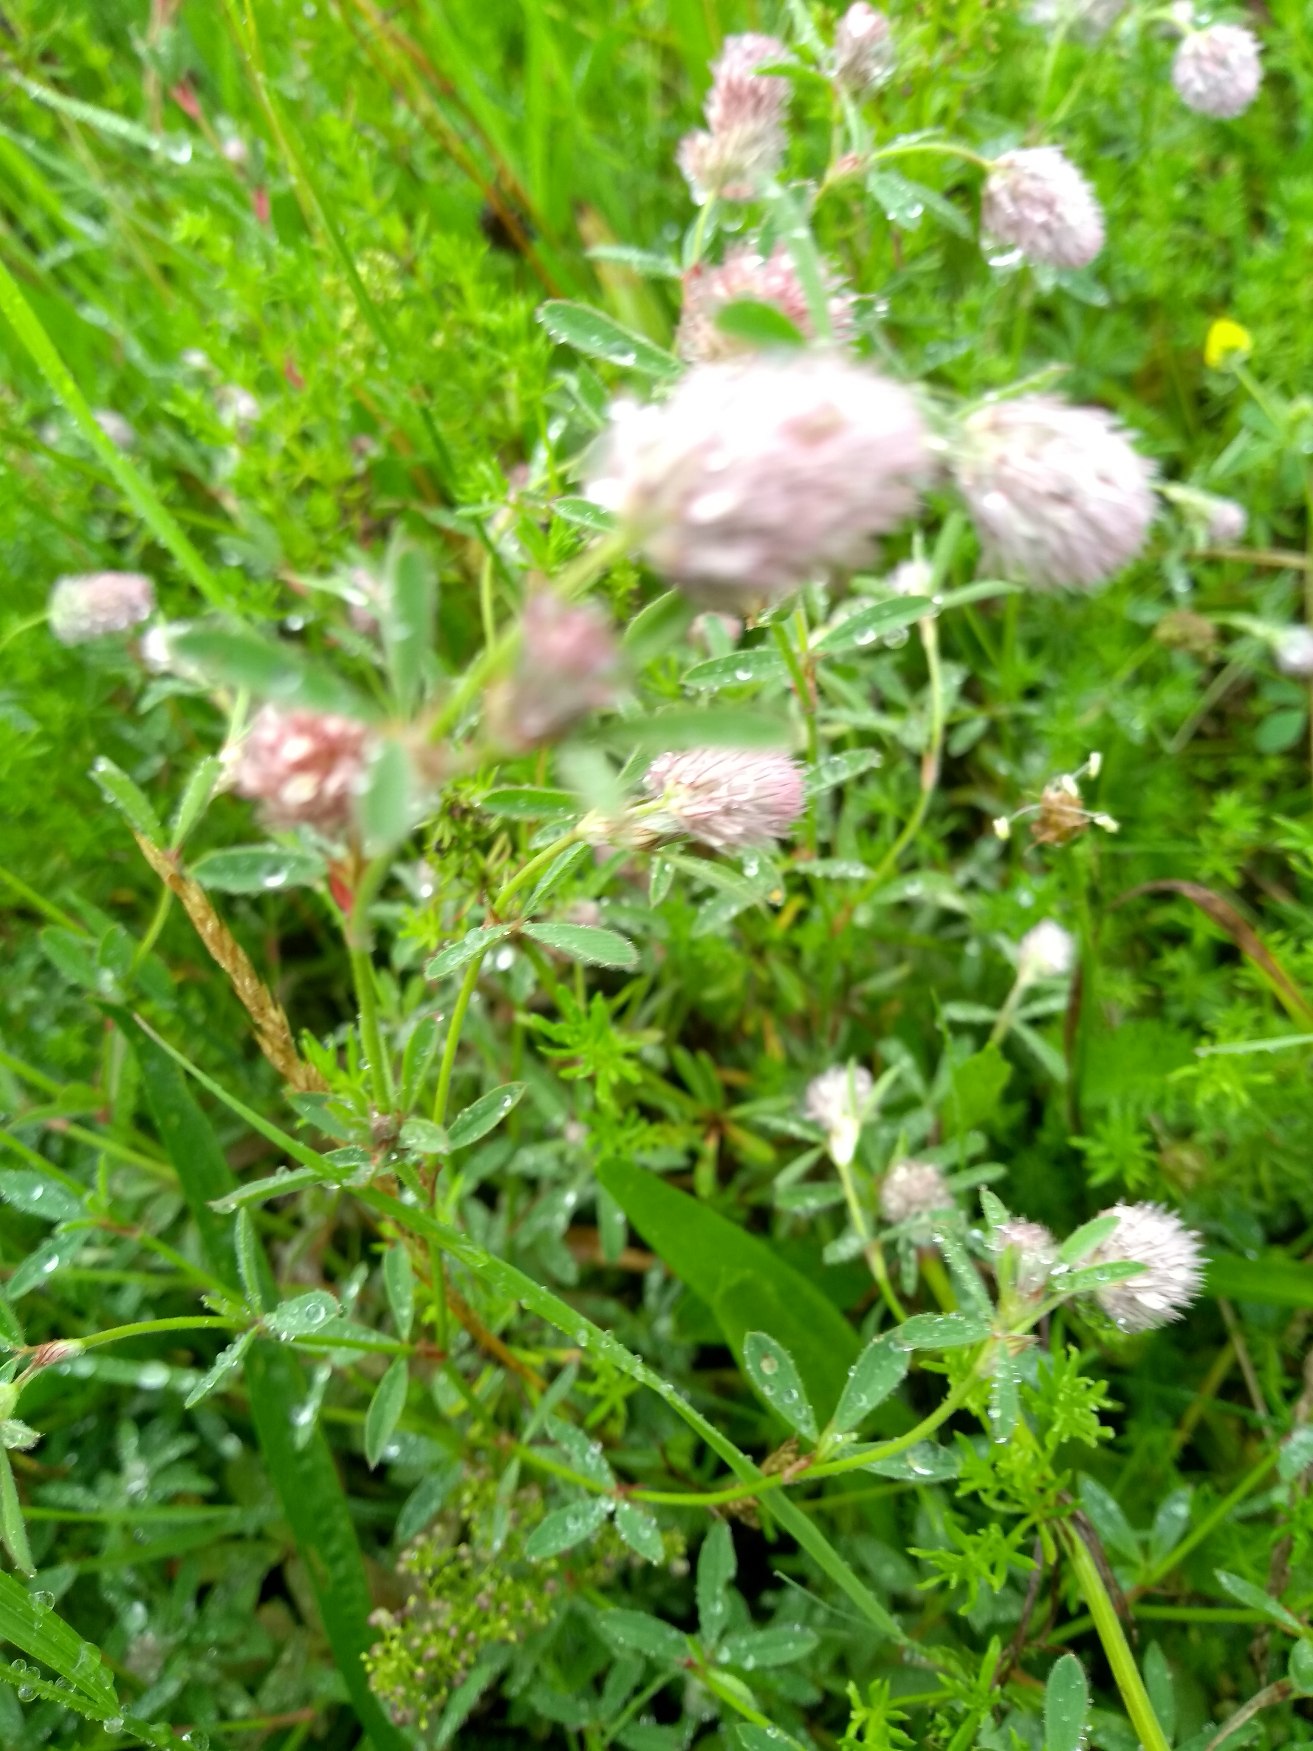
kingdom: Plantae
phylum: Tracheophyta
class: Magnoliopsida
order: Fabales
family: Fabaceae
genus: Trifolium
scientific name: Trifolium arvense
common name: Hare-kløver
